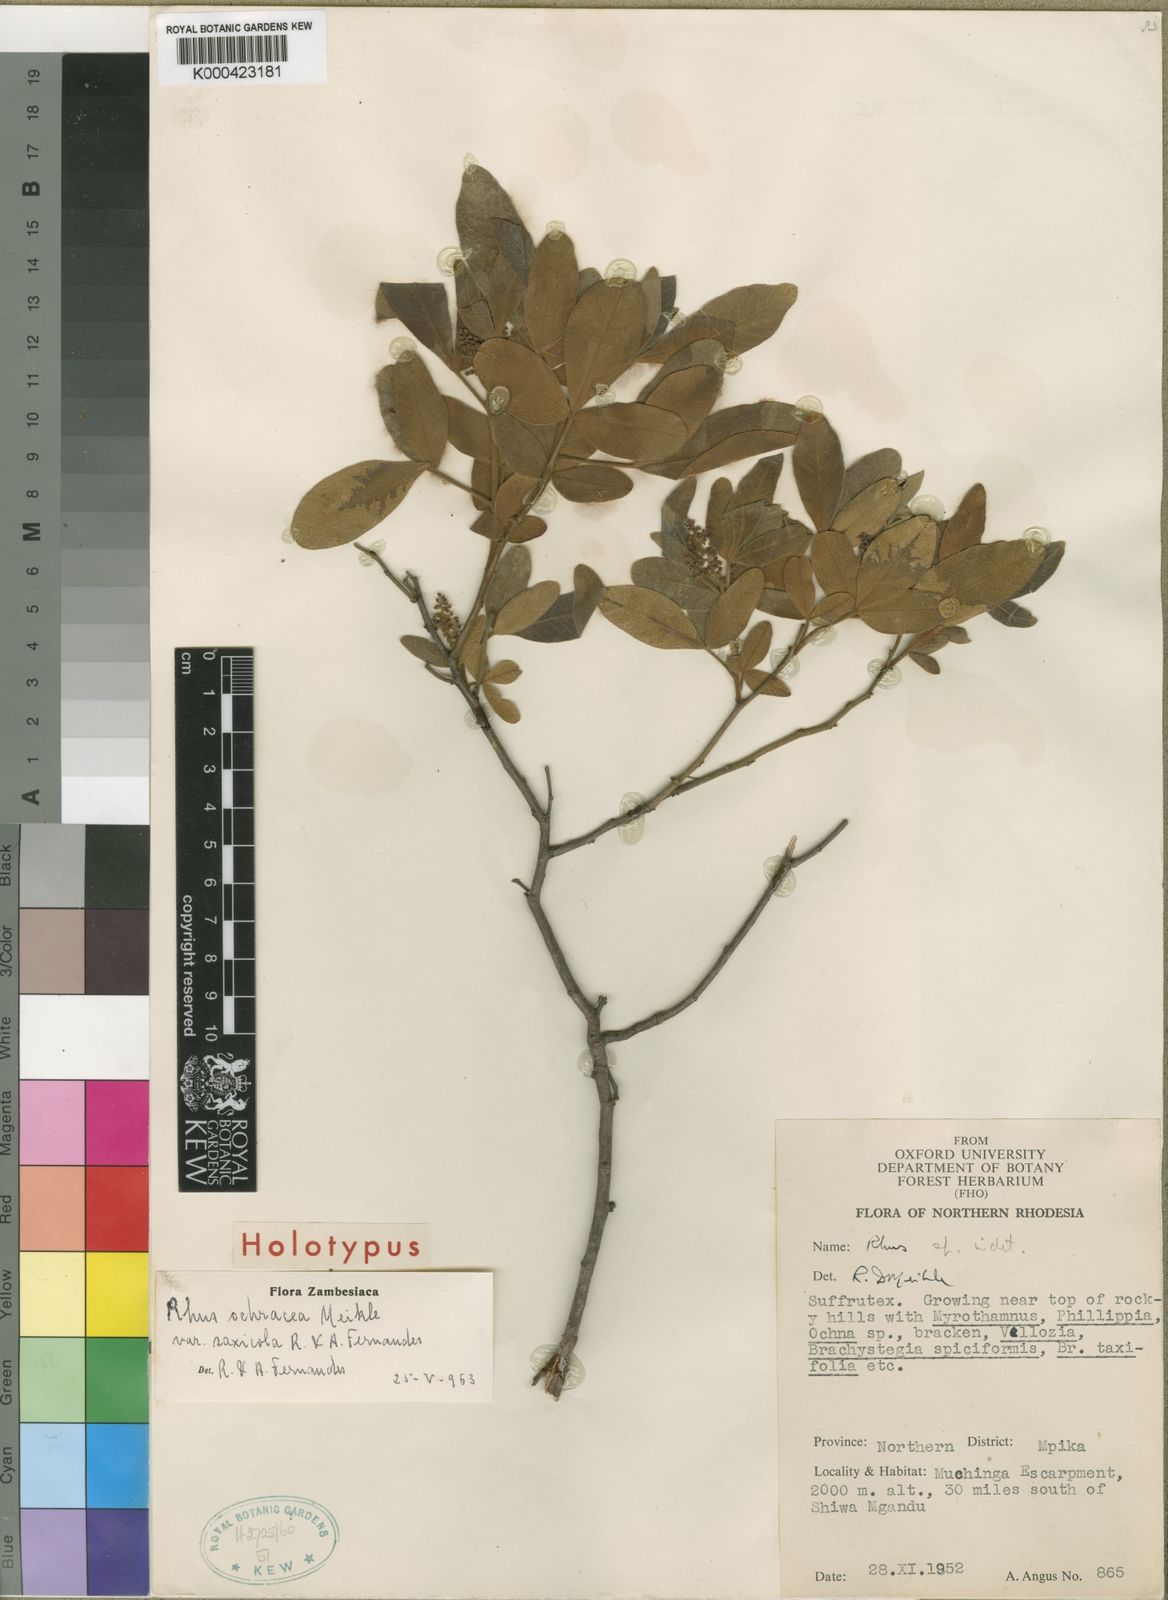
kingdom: Plantae
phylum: Tracheophyta
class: Magnoliopsida
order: Sapindales
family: Anacardiaceae
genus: Searsia
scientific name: Searsia ochracea
